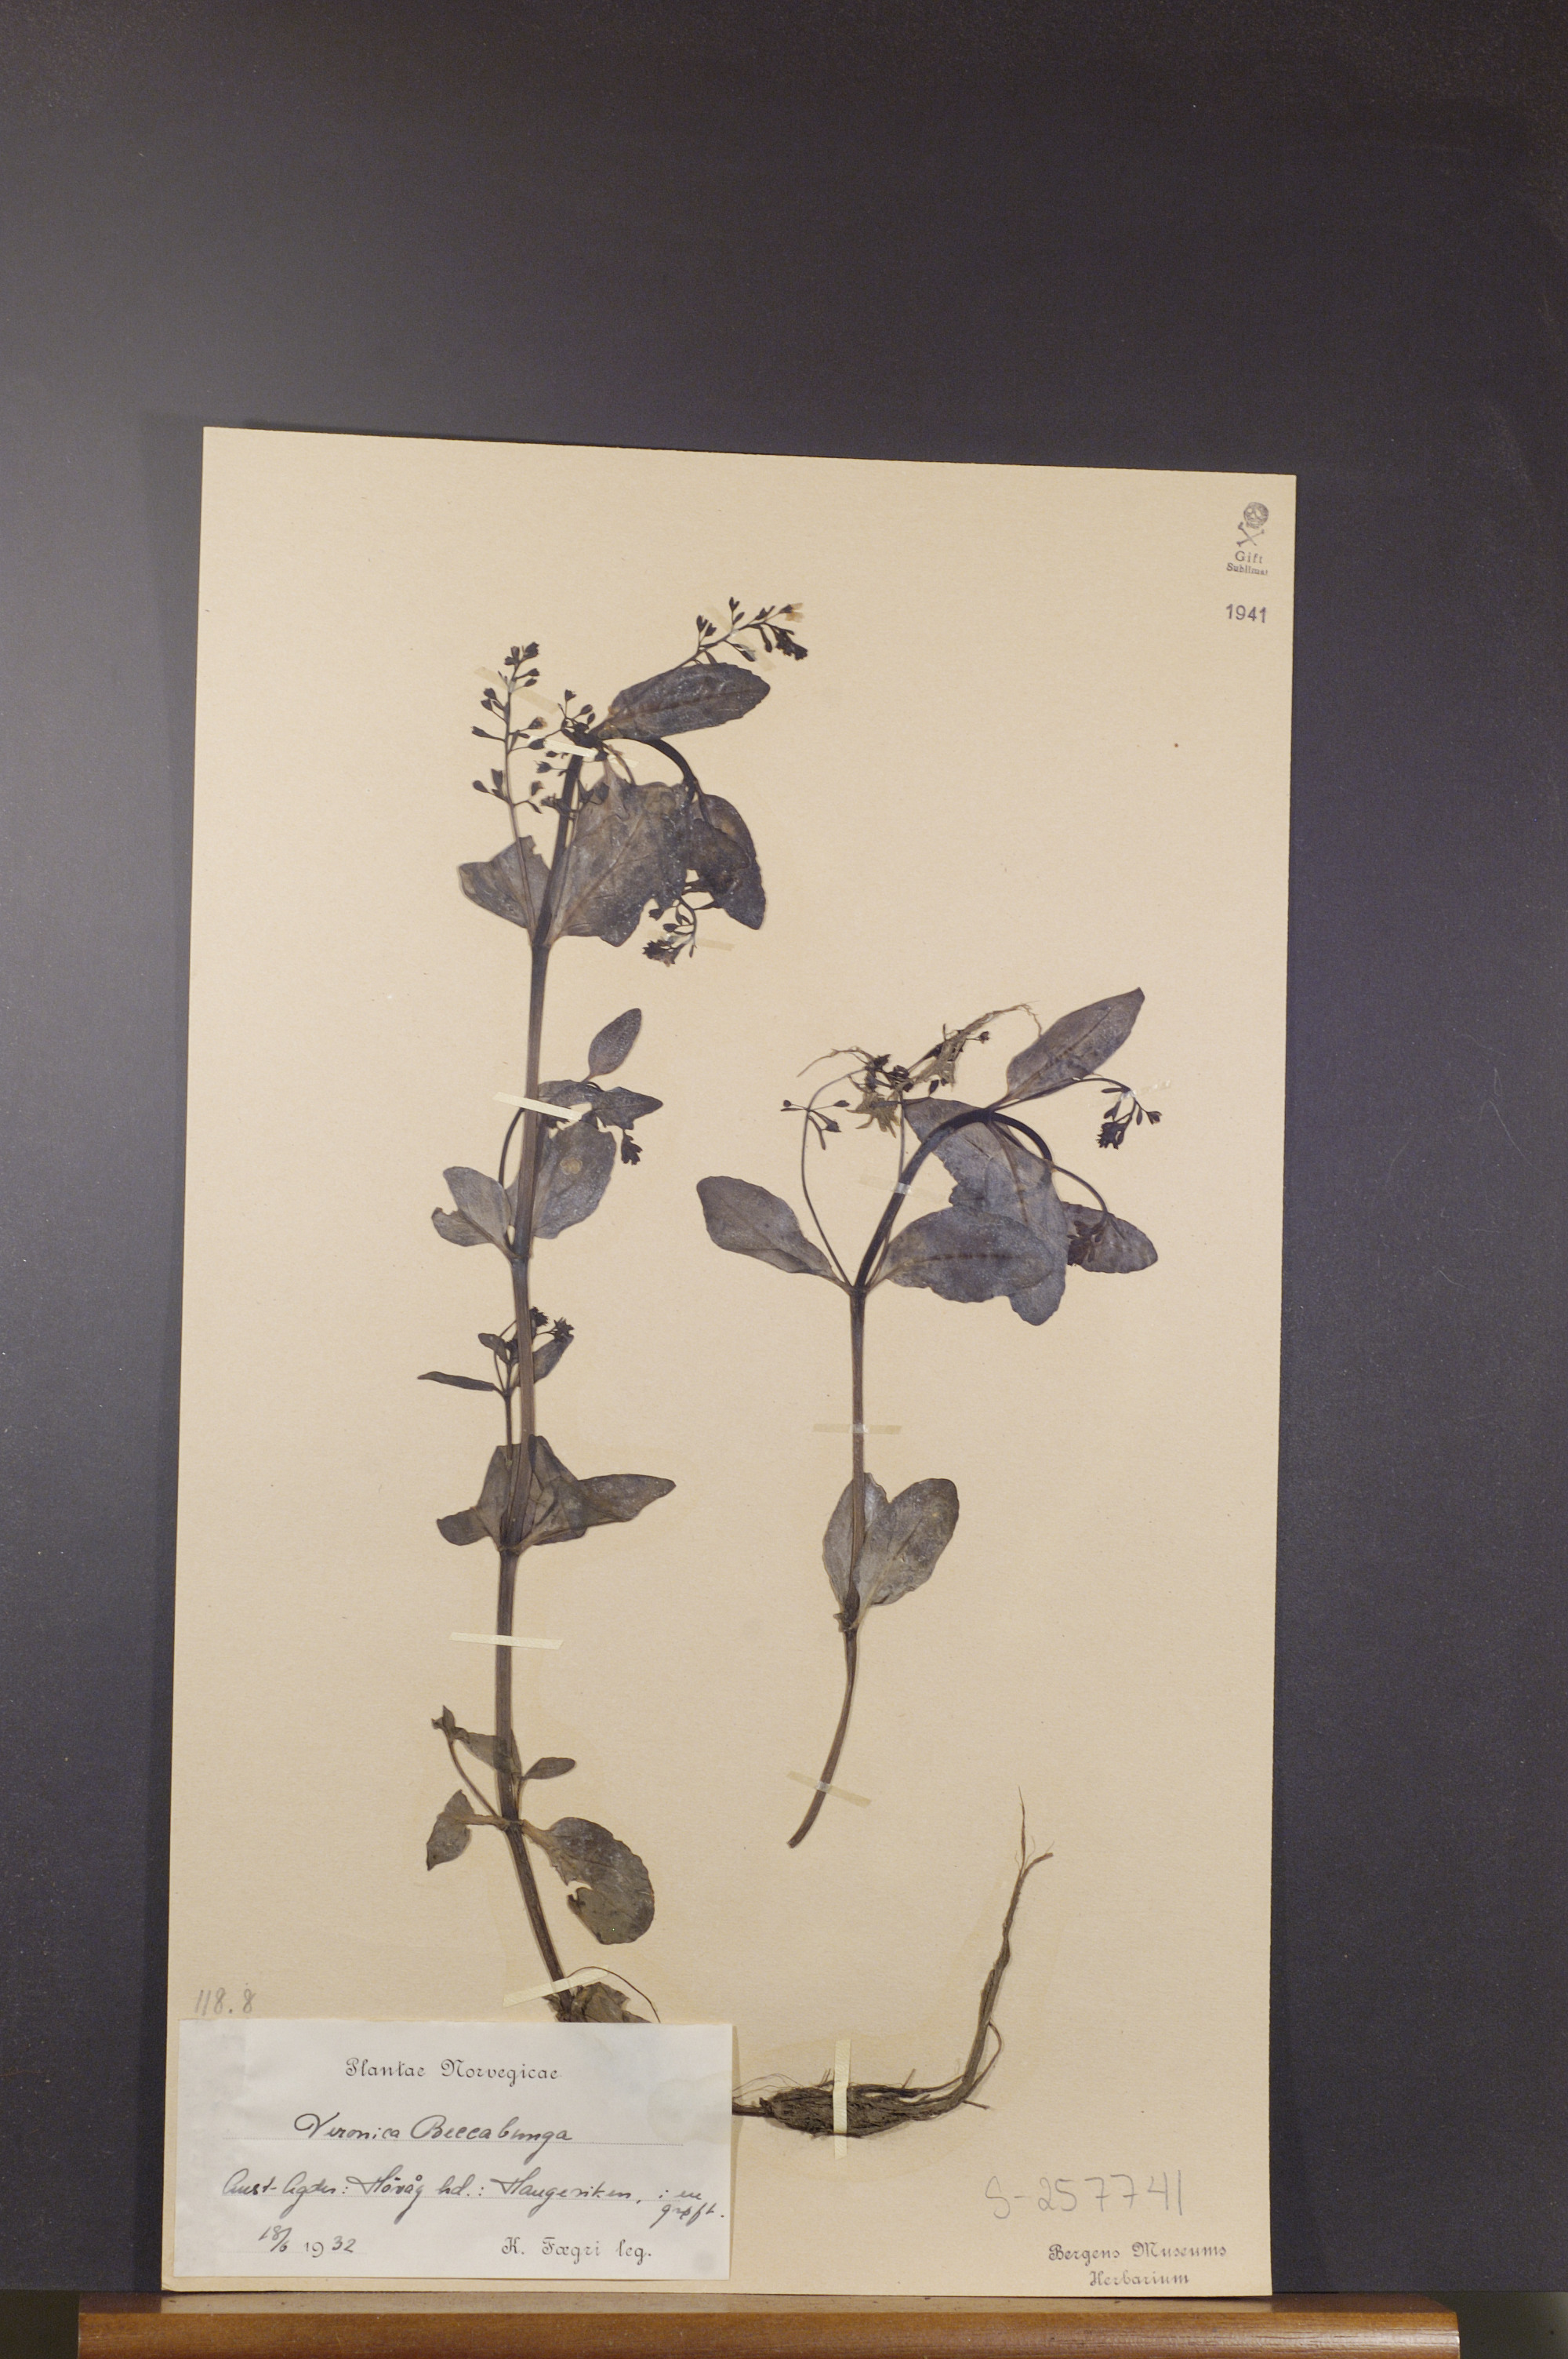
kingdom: Plantae
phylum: Tracheophyta
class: Magnoliopsida
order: Lamiales
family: Plantaginaceae
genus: Veronica
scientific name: Veronica beccabunga
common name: Brooklime
